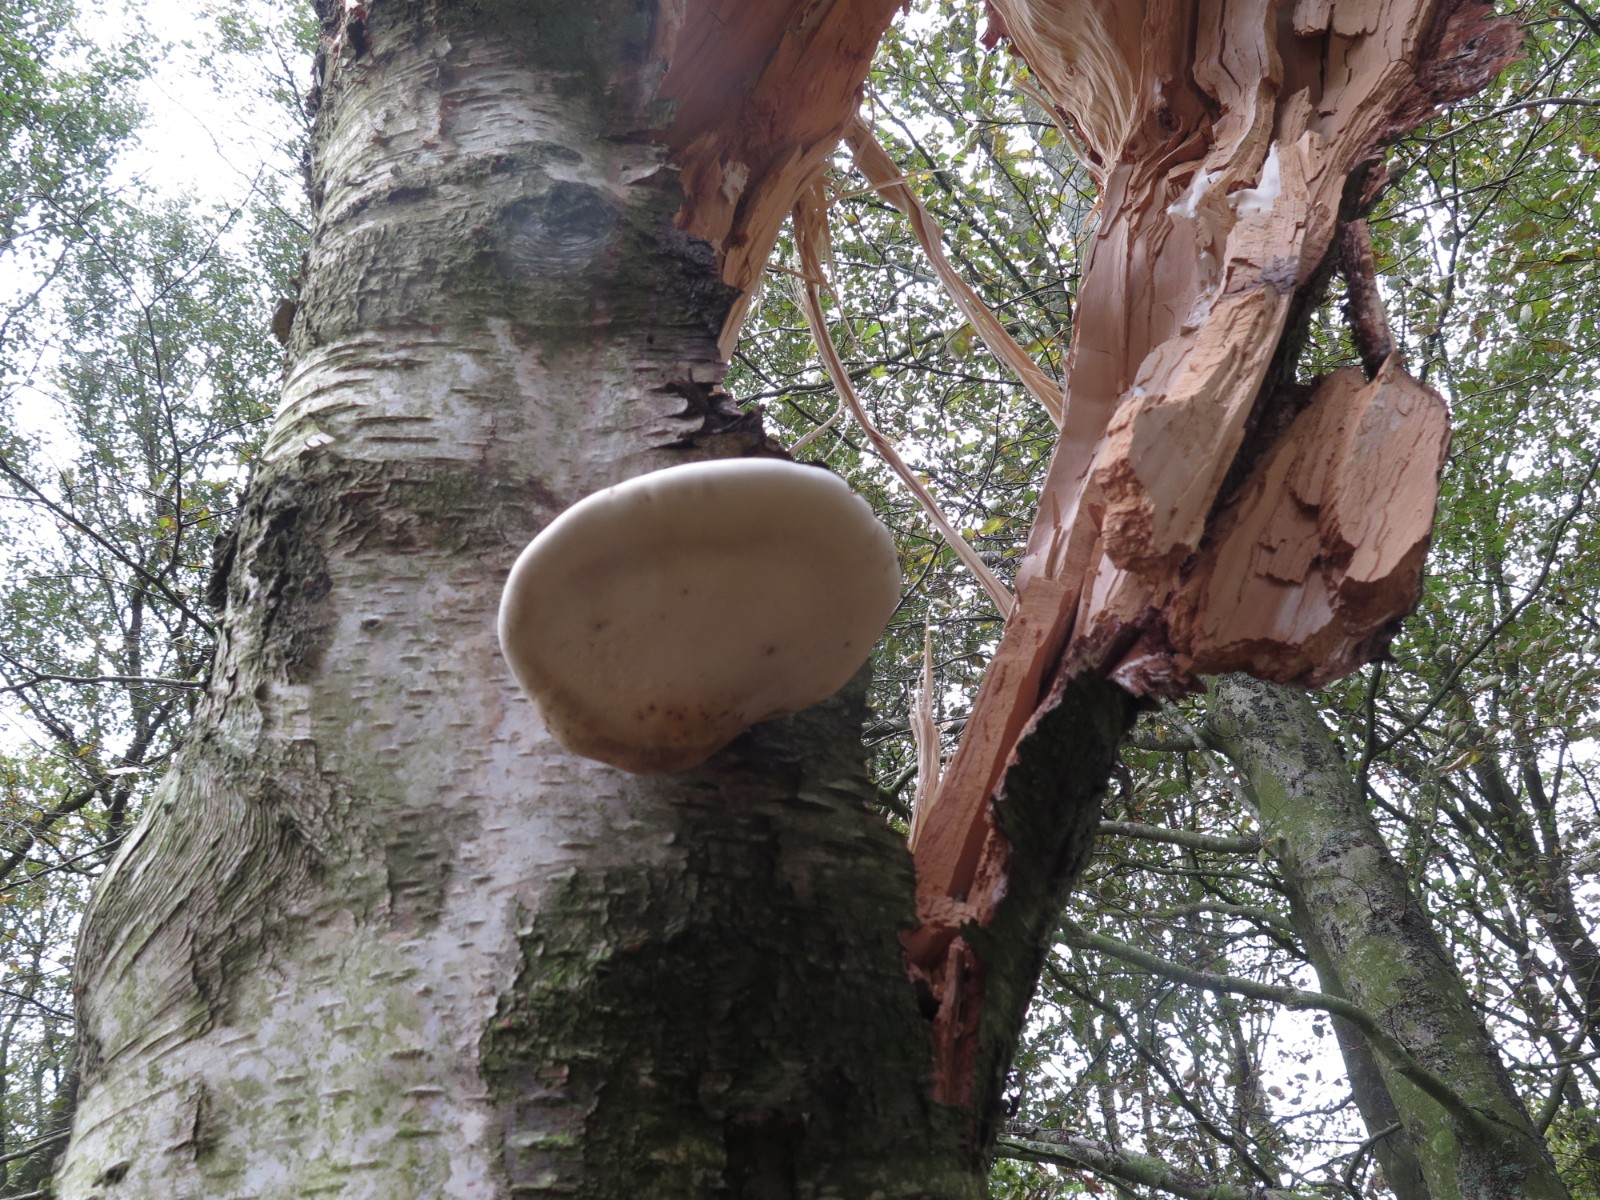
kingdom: Fungi
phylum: Basidiomycota
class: Agaricomycetes
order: Polyporales
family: Fomitopsidaceae
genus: Fomitopsis
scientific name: Fomitopsis betulina
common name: birkeporesvamp
